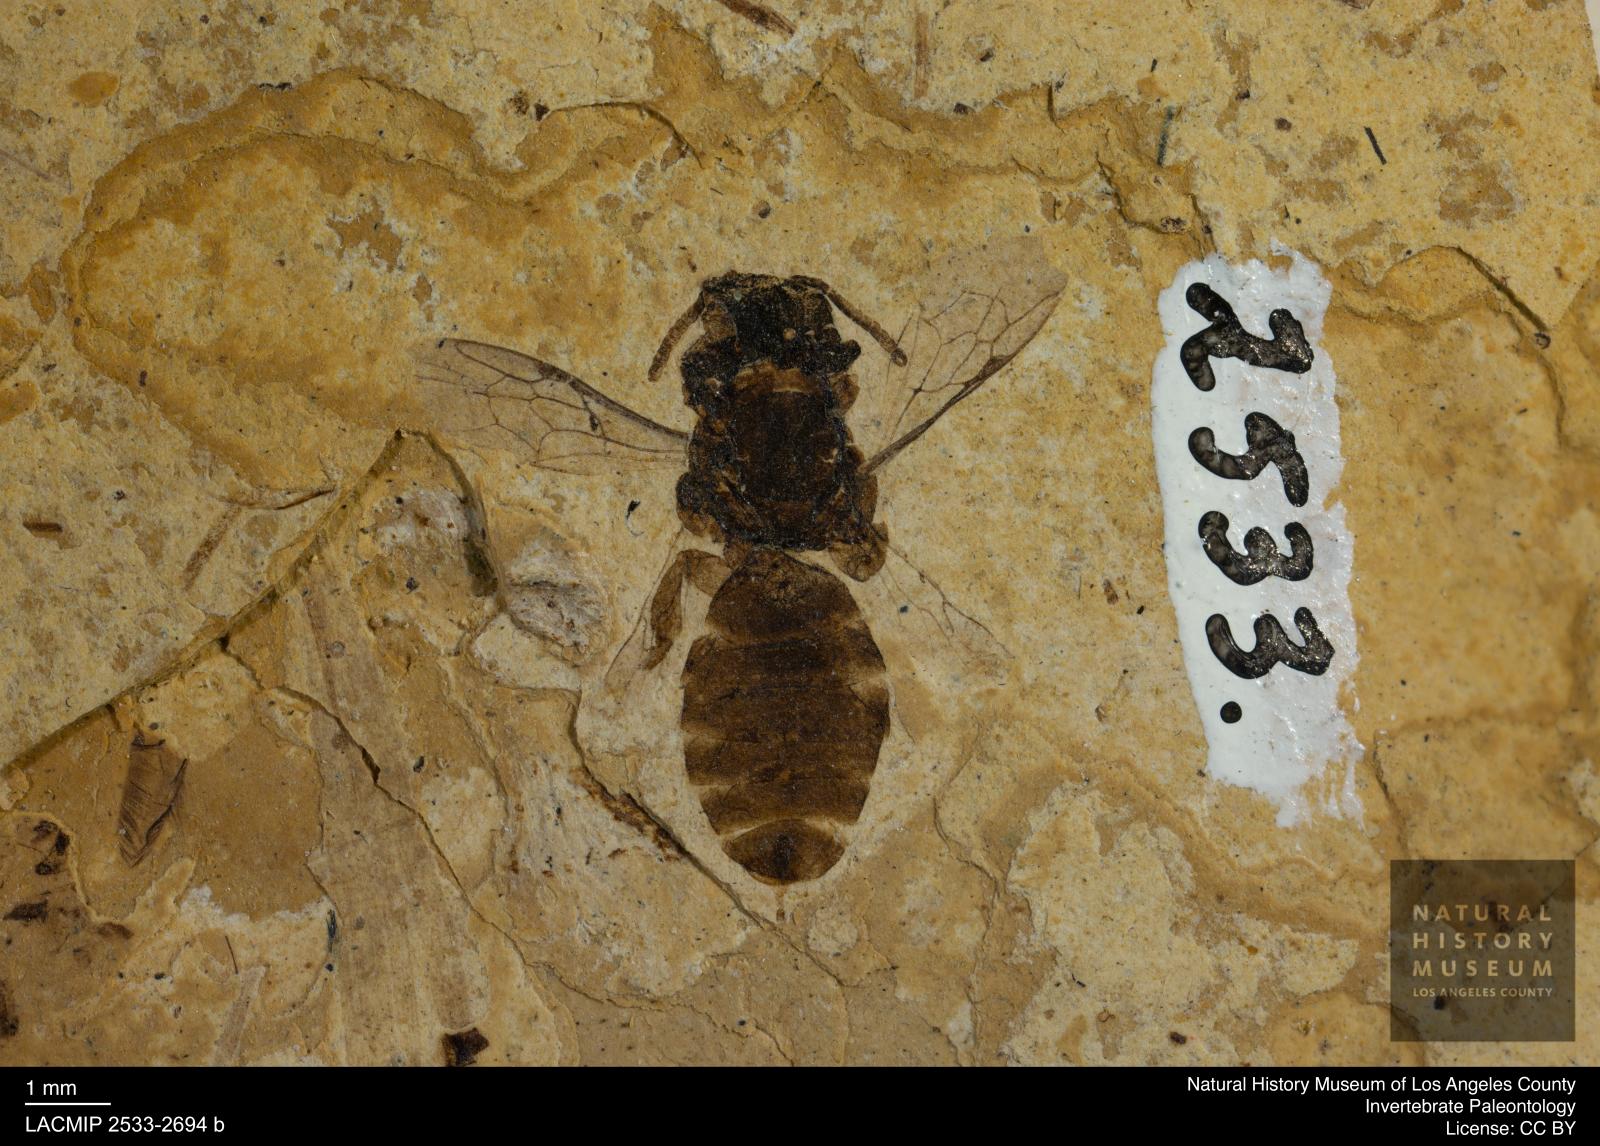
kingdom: Animalia
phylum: Arthropoda
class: Insecta
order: Hymenoptera
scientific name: Hymenoptera
